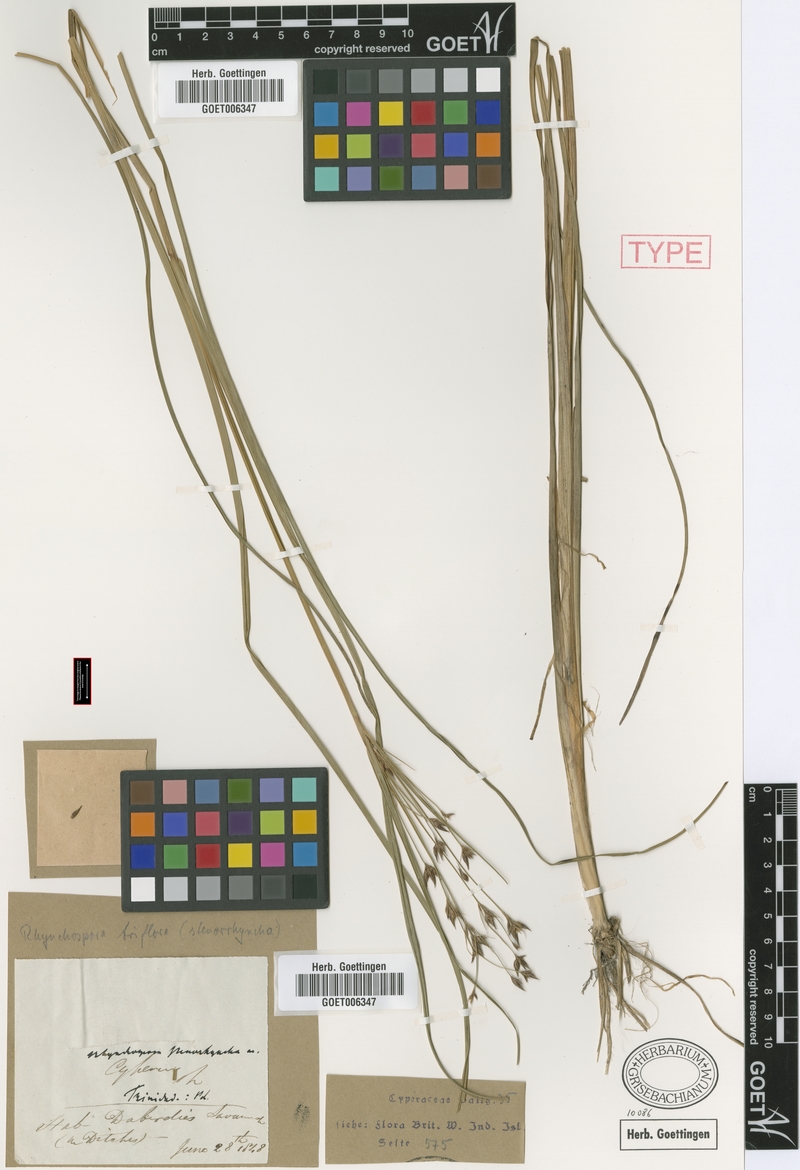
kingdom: Plantae
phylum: Tracheophyta
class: Liliopsida
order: Poales
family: Cyperaceae
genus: Rhynchospora
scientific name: Rhynchospora triflora
